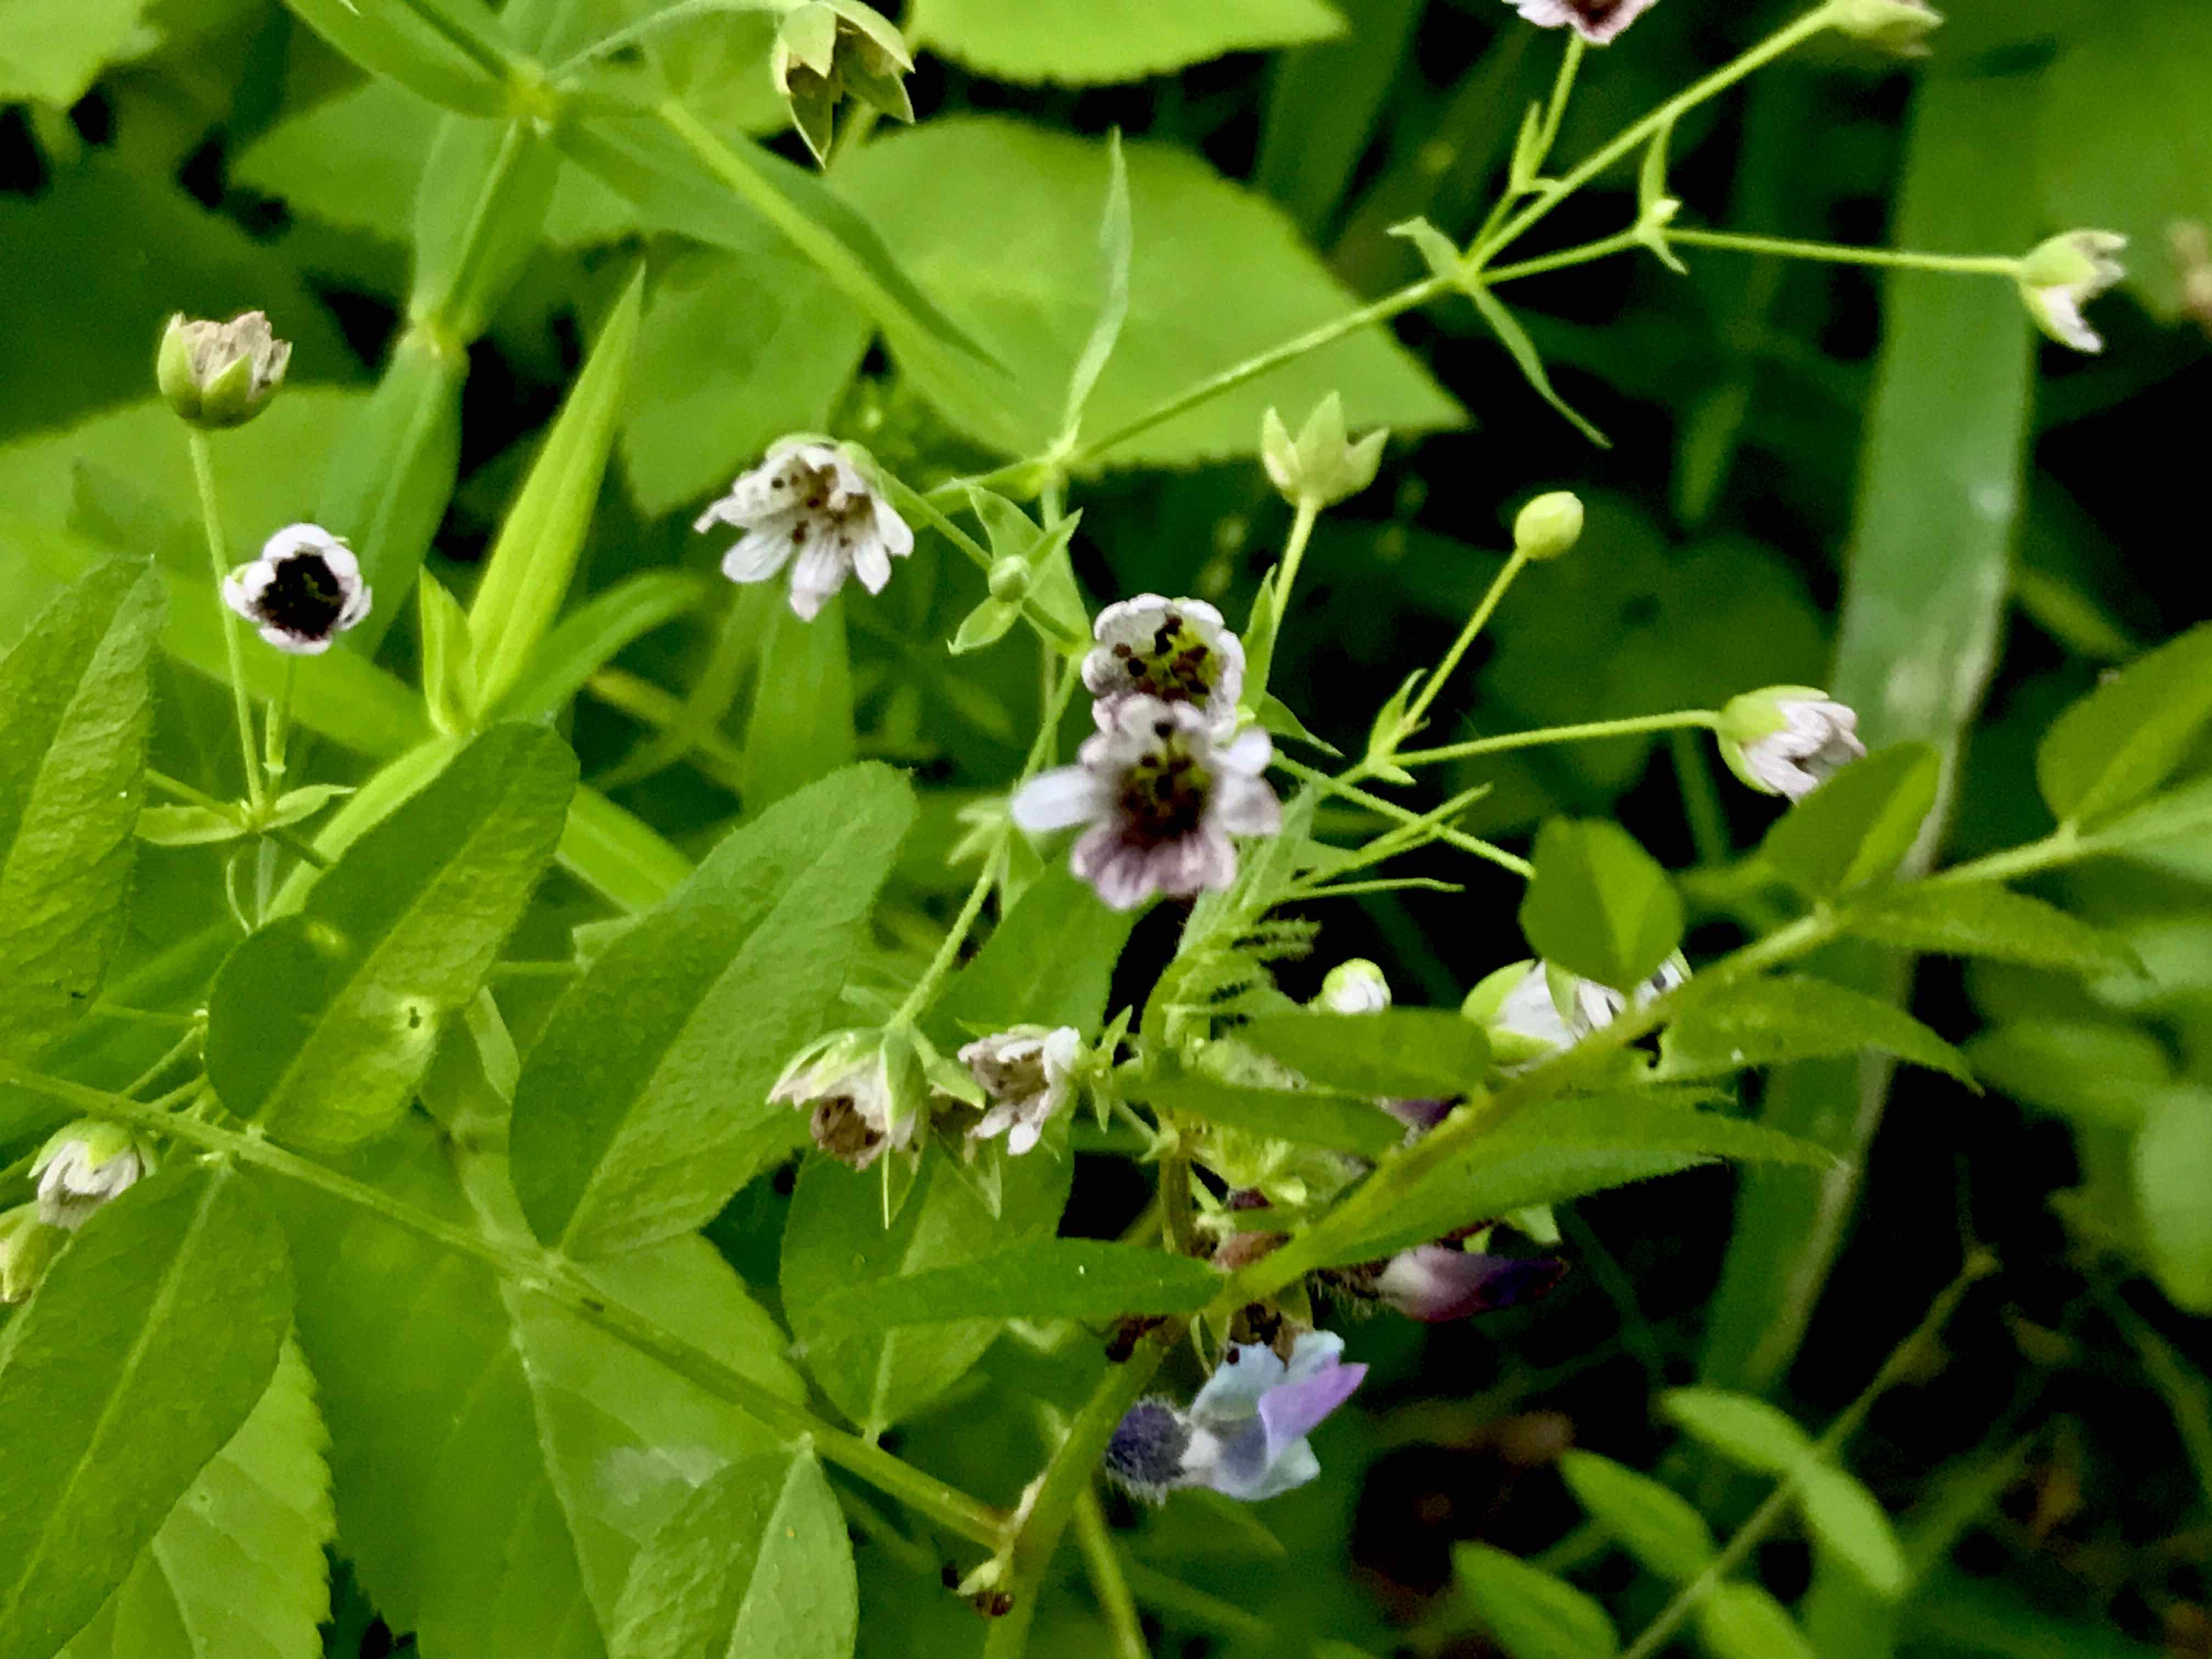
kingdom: Fungi
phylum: Basidiomycota
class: Microbotryomycetes
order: Microbotryales
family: Microbotryaceae
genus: Microbotryum
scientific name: Microbotryum stellariae
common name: fladstjerne-støvbladrust
